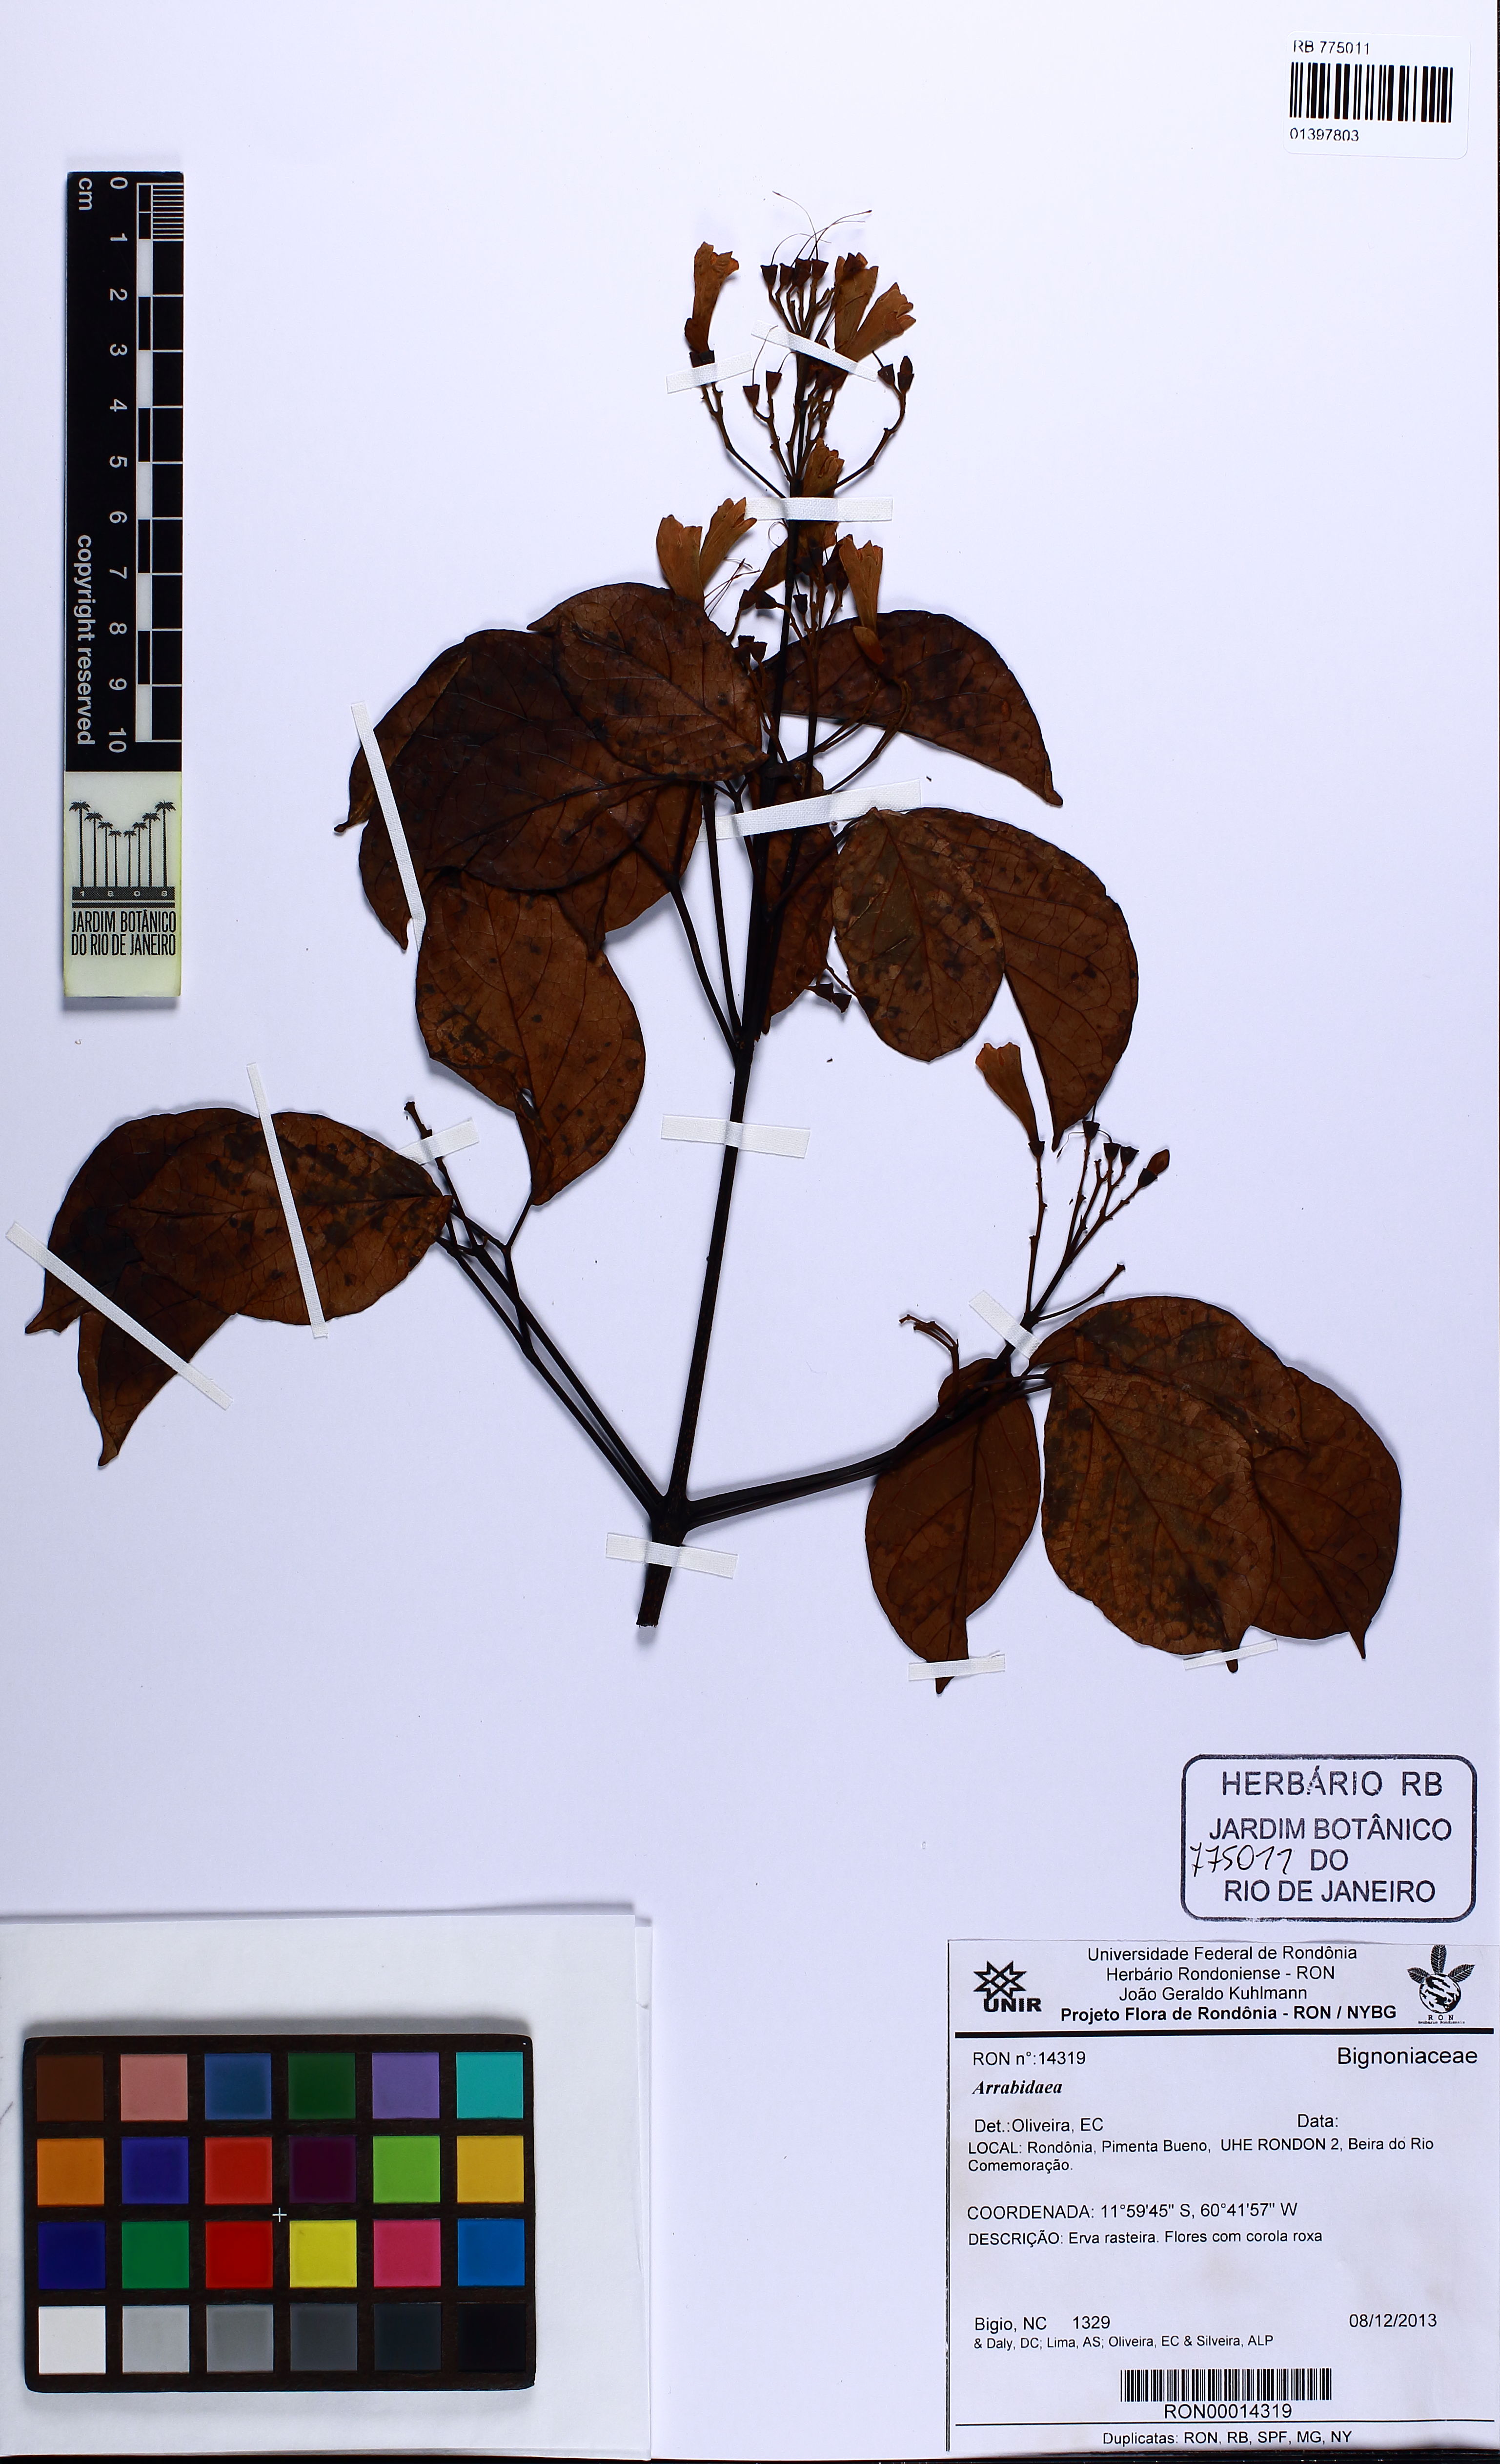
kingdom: Plantae
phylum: Tracheophyta
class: Magnoliopsida
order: Lamiales
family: Bignoniaceae
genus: Cuspidaria
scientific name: Cuspidaria inaequalis
